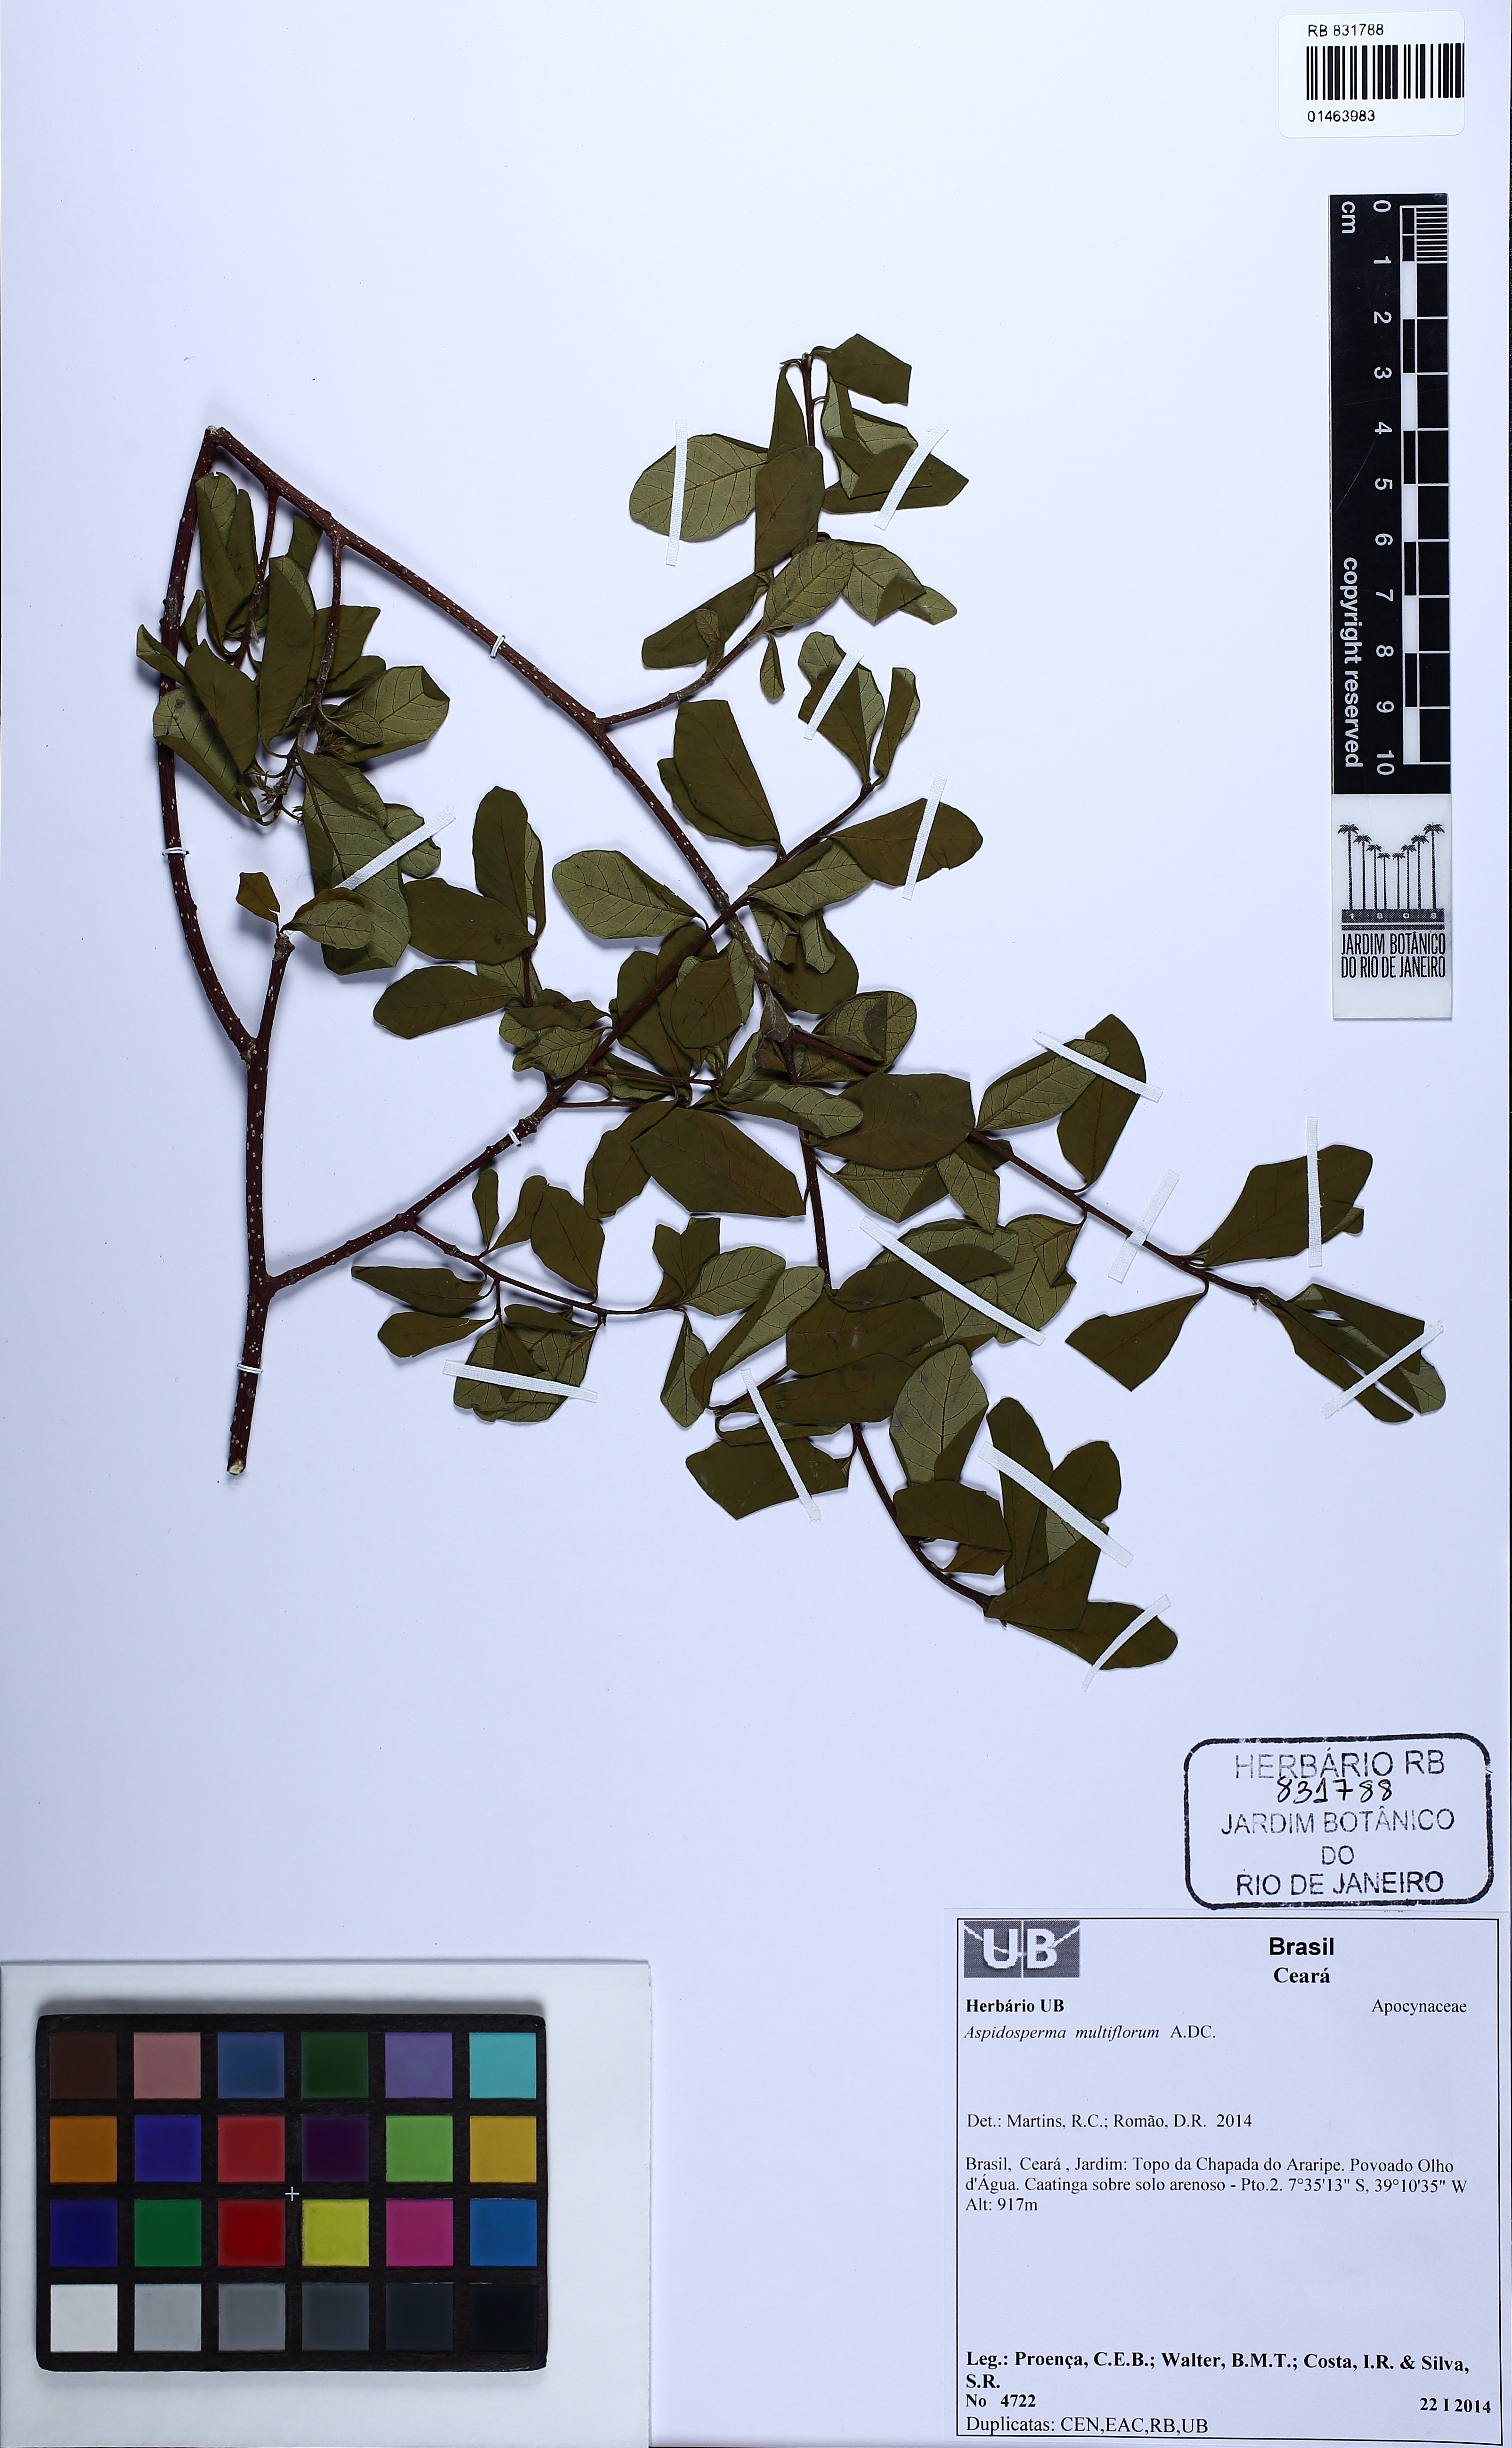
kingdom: Plantae
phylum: Tracheophyta
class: Magnoliopsida
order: Gentianales
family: Apocynaceae
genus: Aspidosperma
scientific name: Aspidosperma multiflorum
